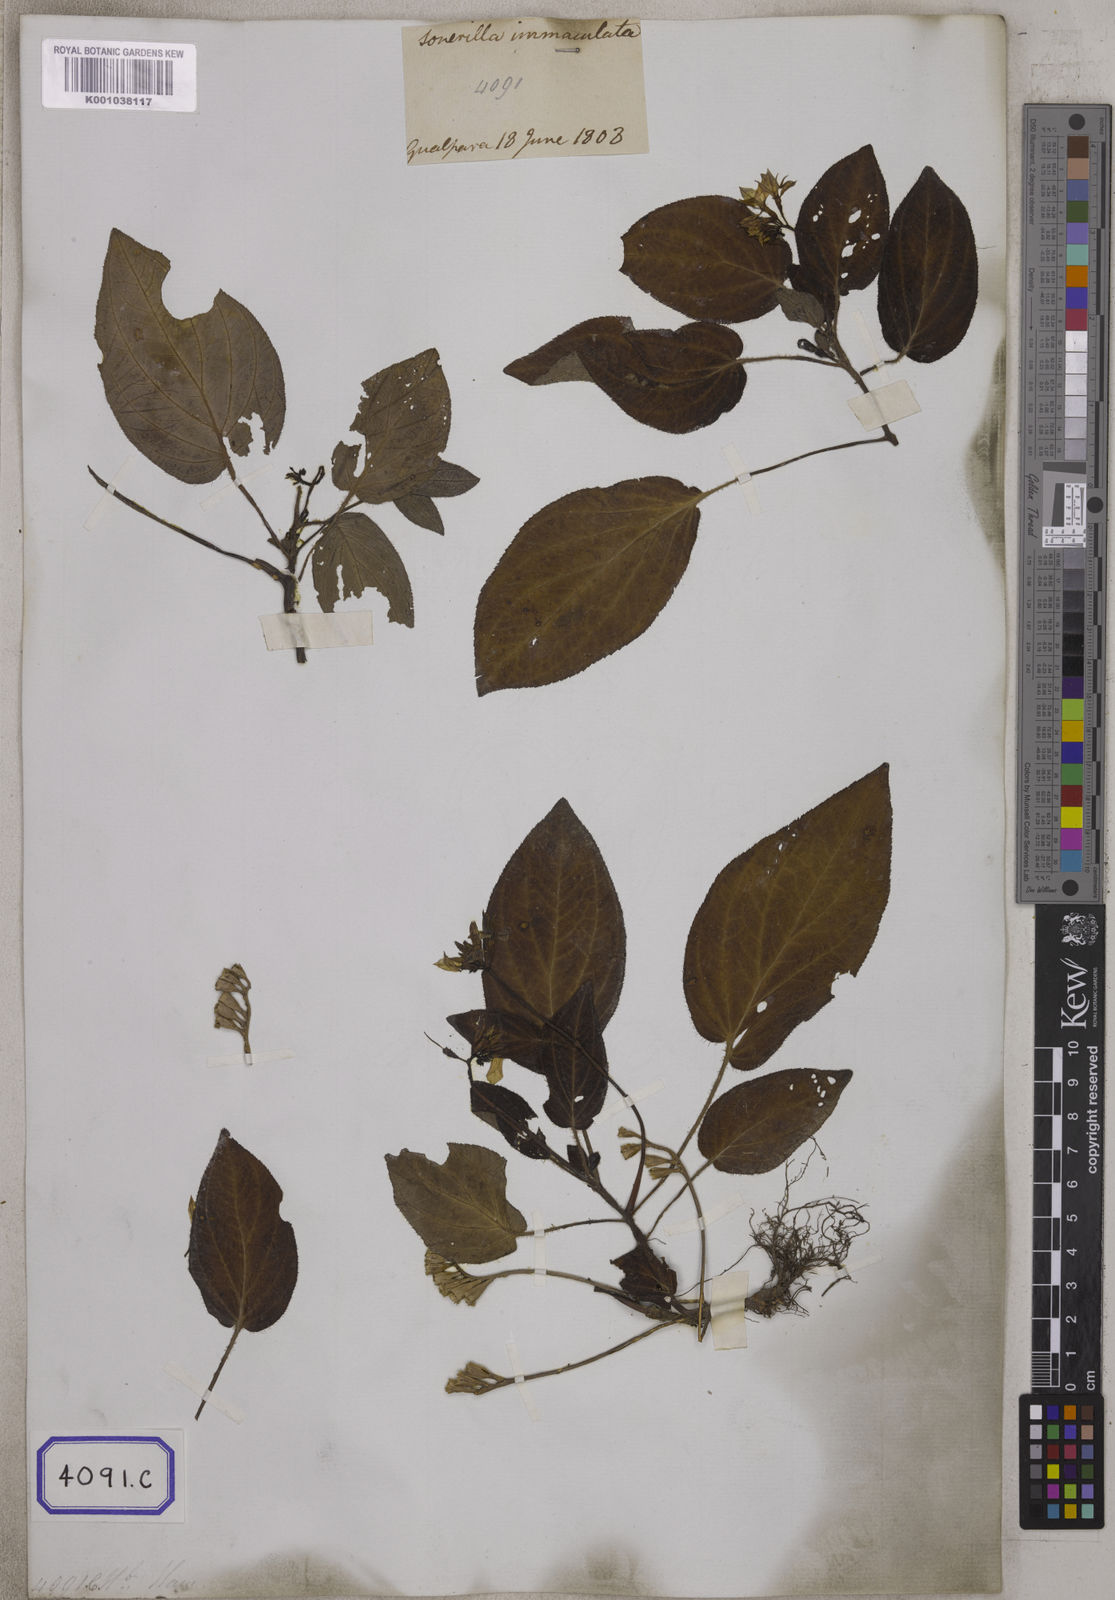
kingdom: Plantae
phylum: Tracheophyta
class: Magnoliopsida
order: Myrtales
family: Melastomataceae
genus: Sonerila
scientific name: Sonerila maculata
